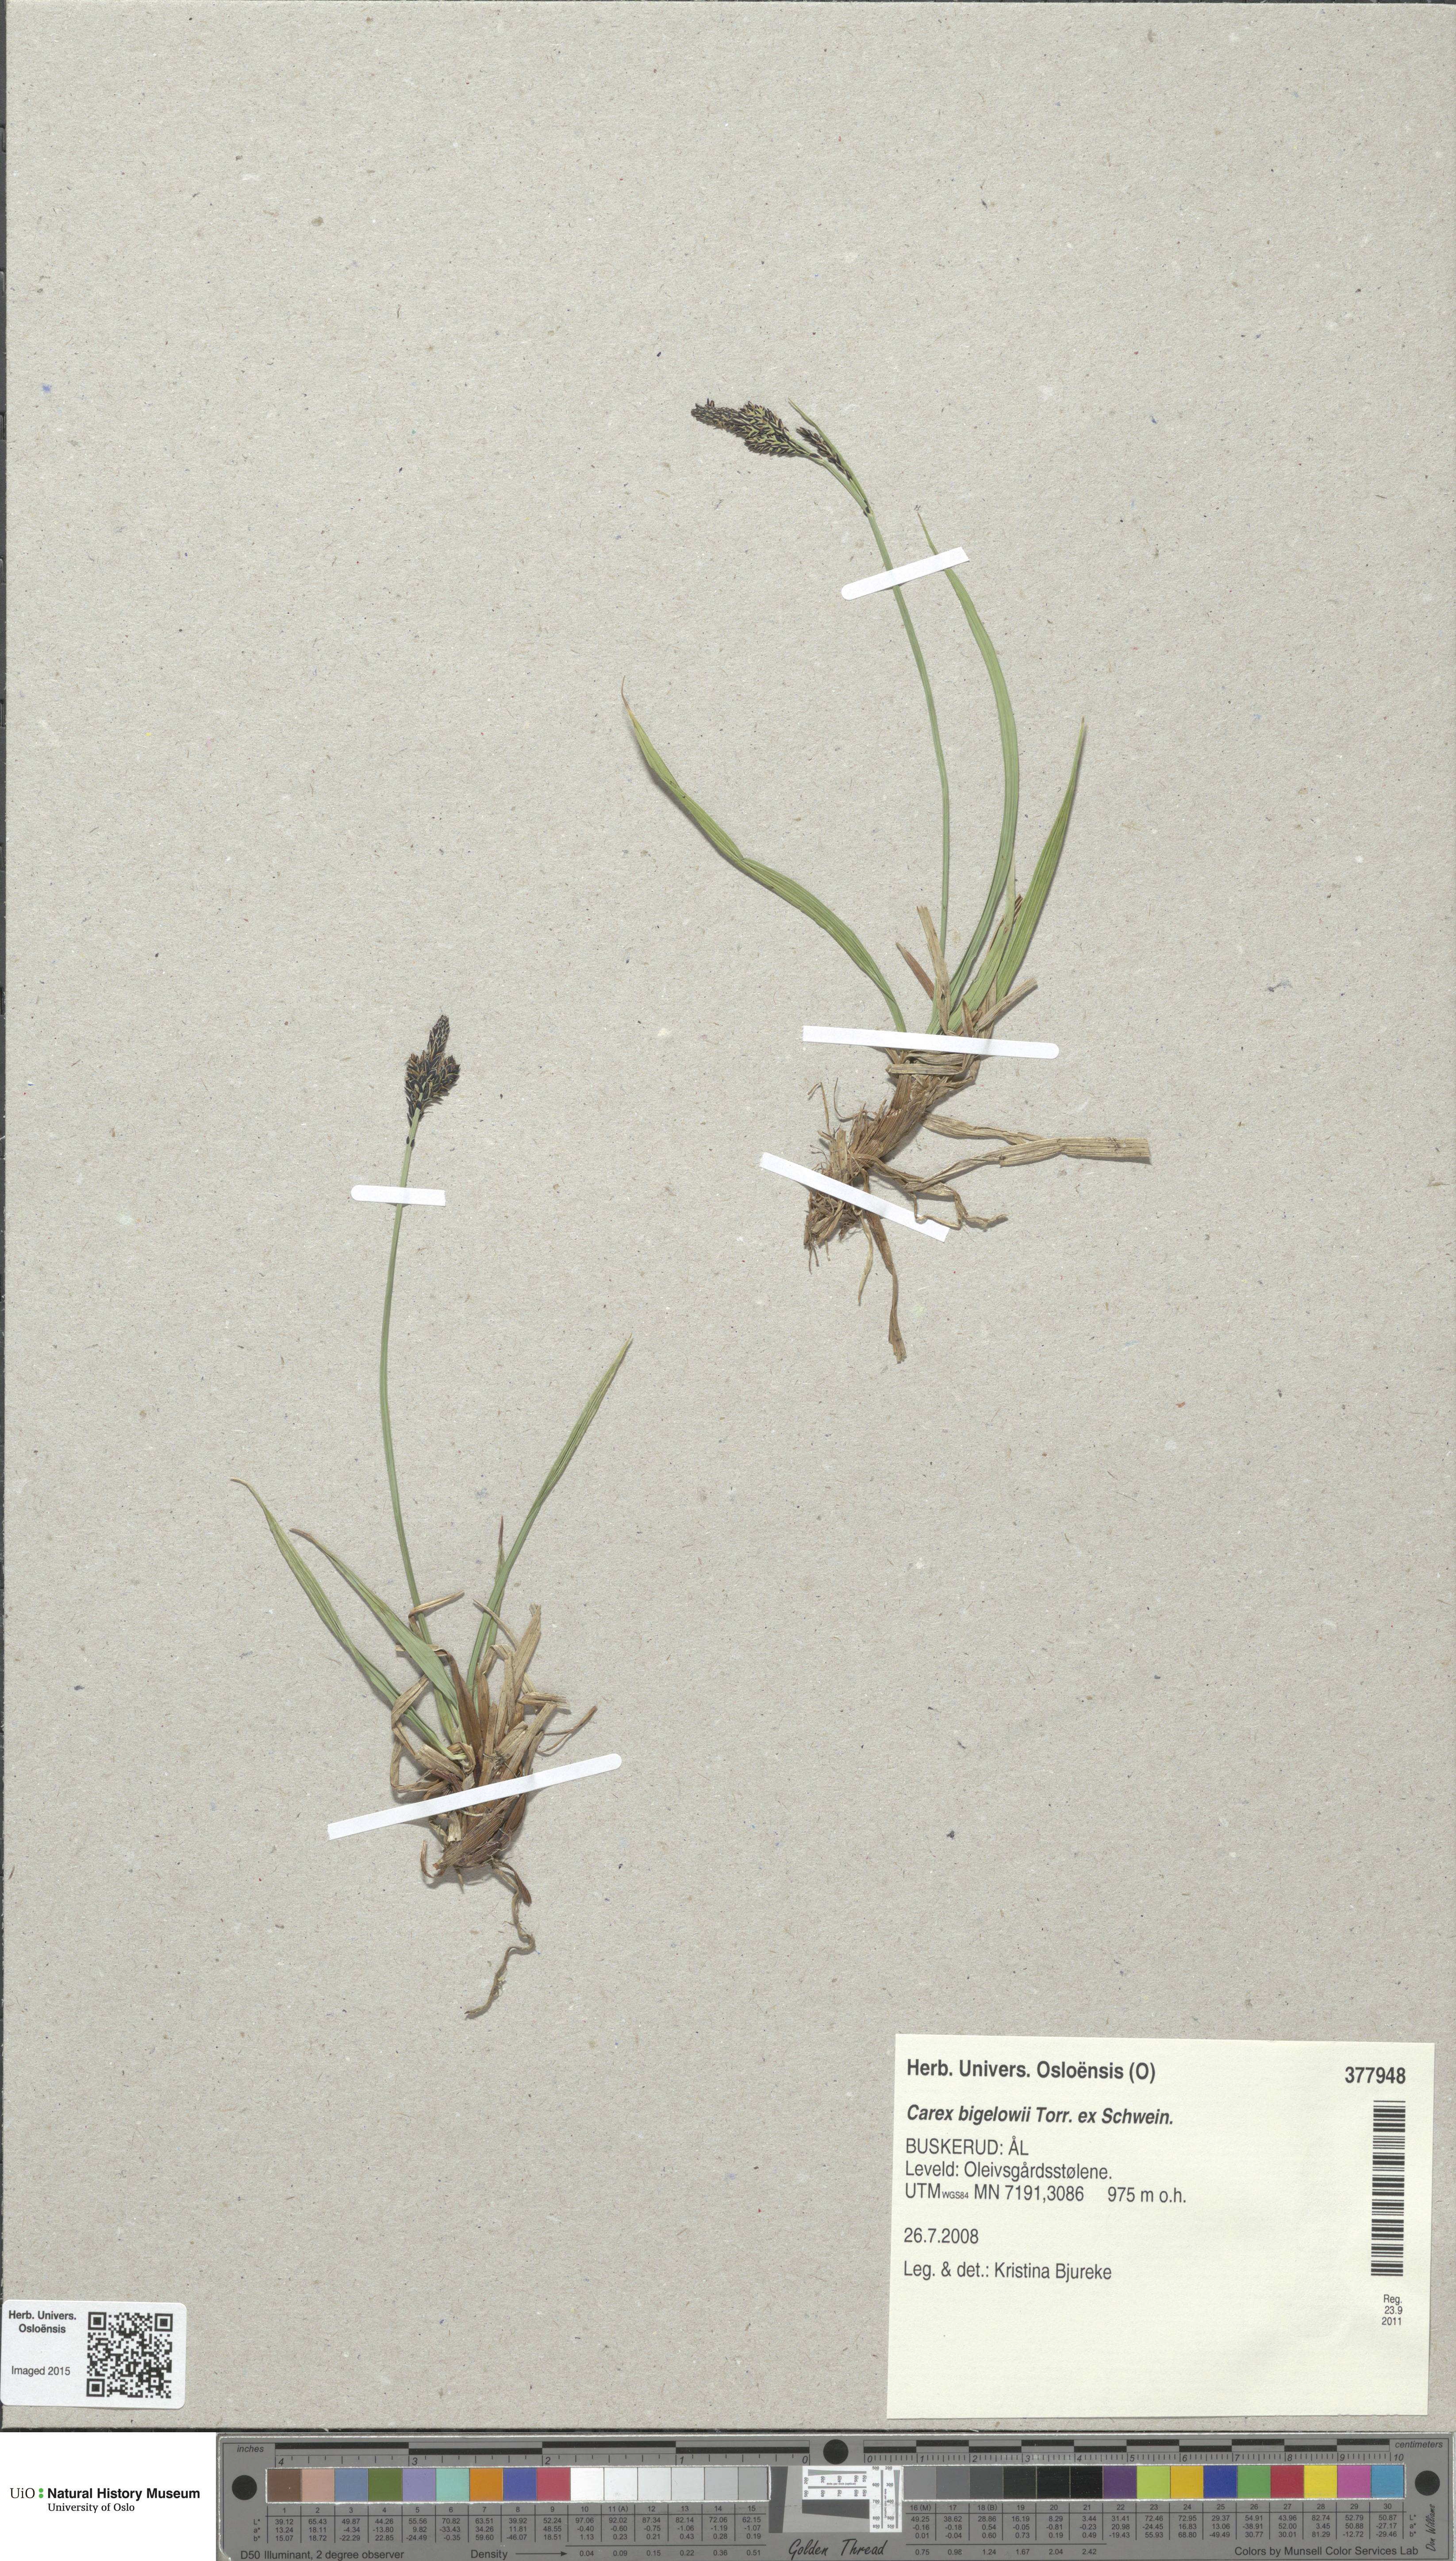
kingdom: Plantae
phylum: Tracheophyta
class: Liliopsida
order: Poales
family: Cyperaceae
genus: Carex
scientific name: Carex bigelowii
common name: Stiff sedge
